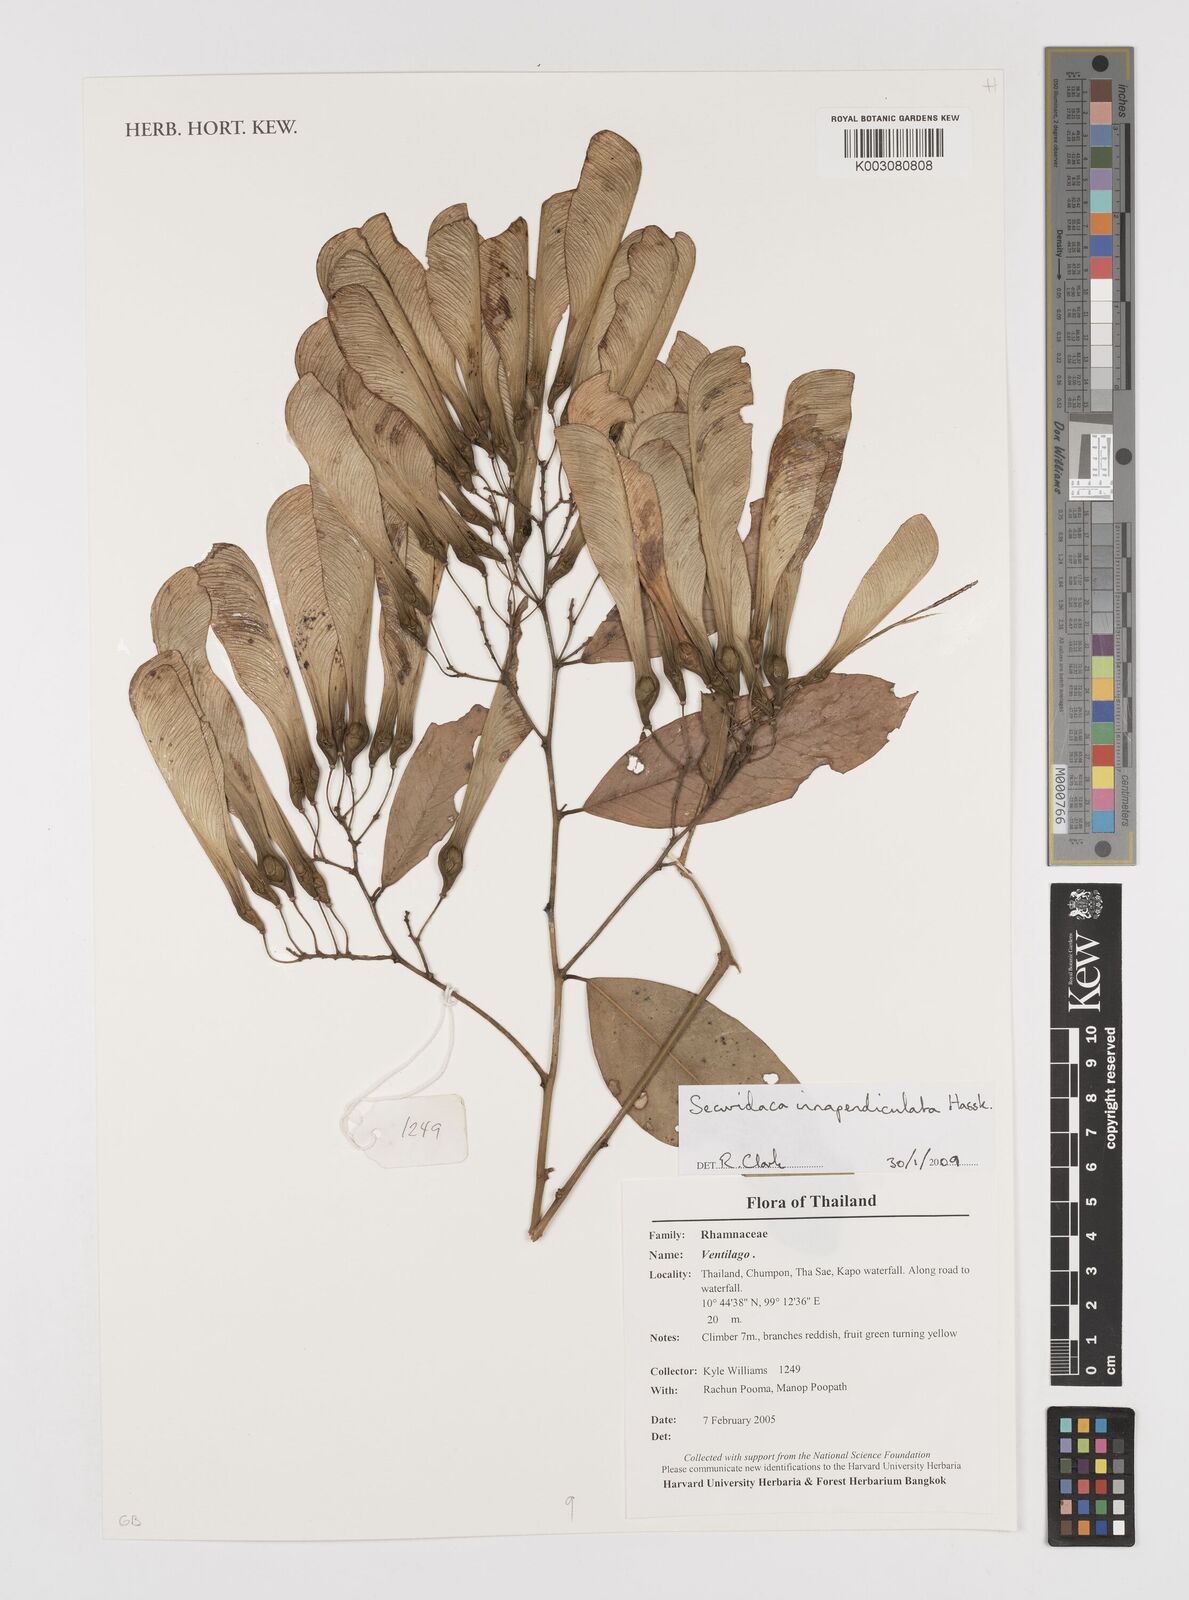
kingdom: Plantae
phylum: Tracheophyta
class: Magnoliopsida
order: Fabales
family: Polygalaceae
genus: Securidaca
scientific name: Securidaca inappendiculata
